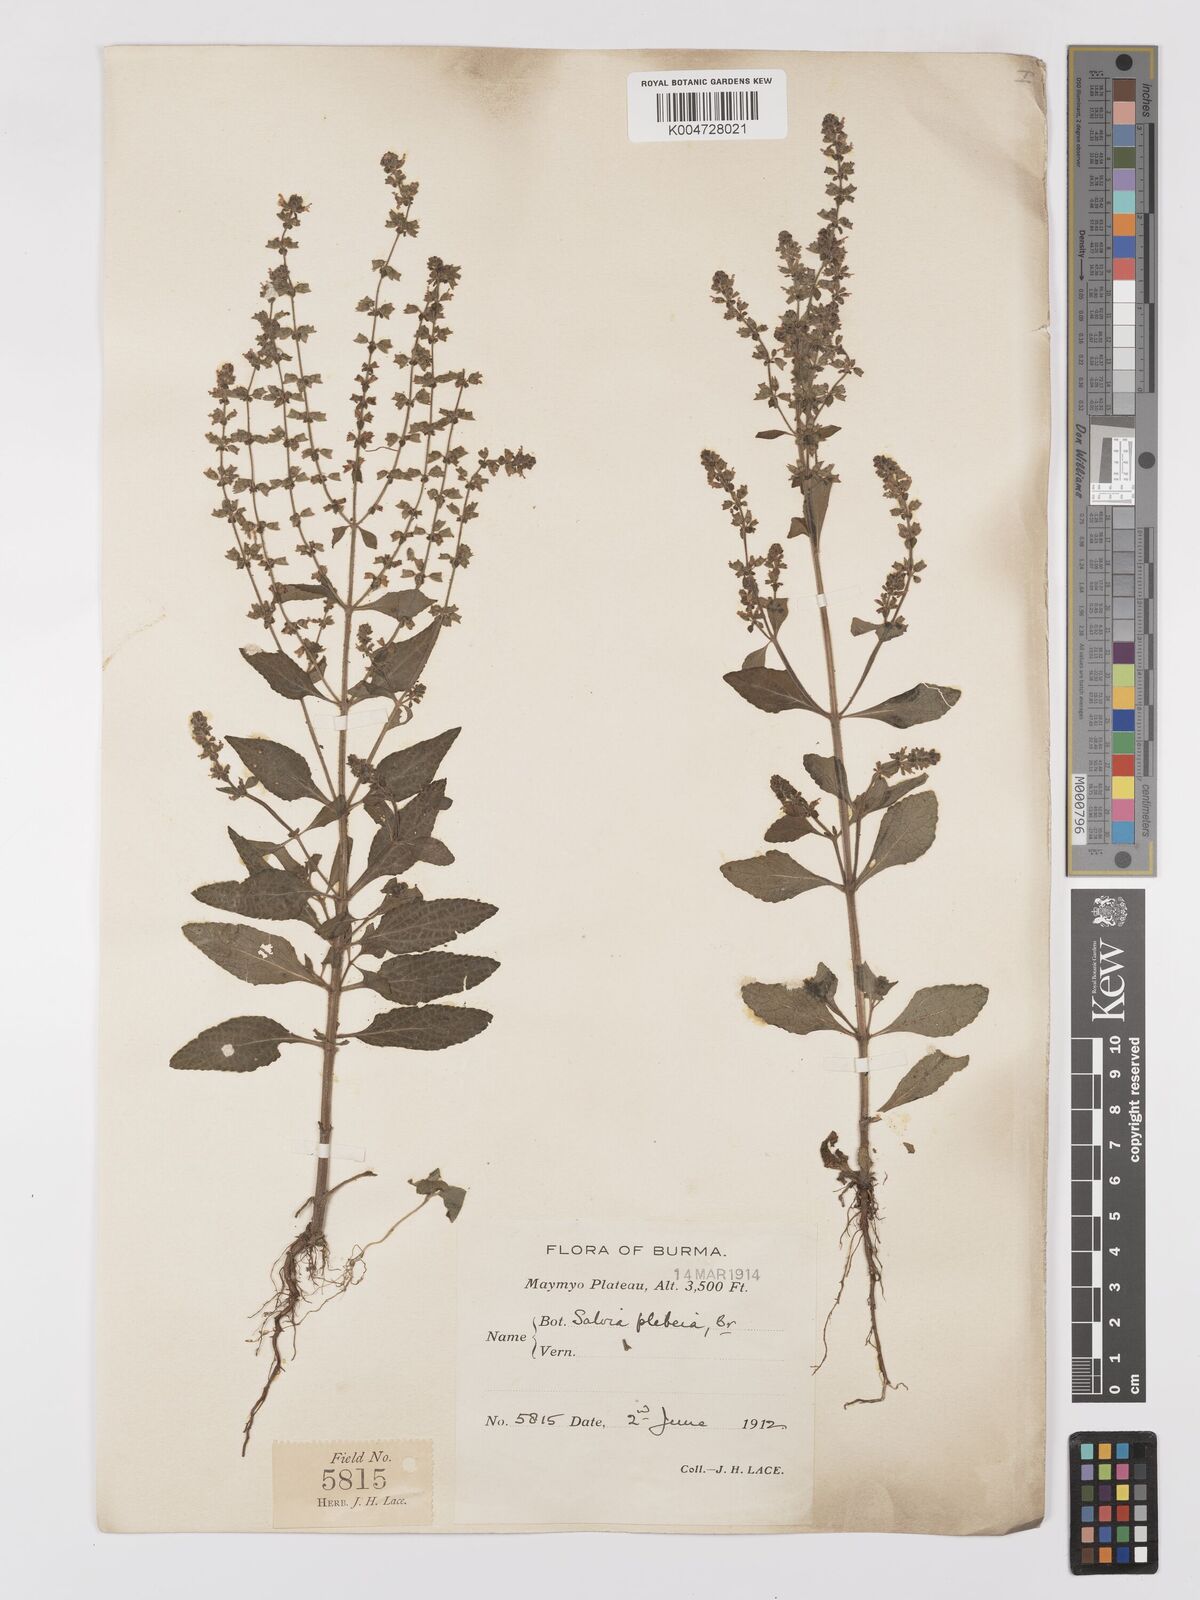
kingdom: Plantae
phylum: Tracheophyta
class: Magnoliopsida
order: Lamiales
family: Lamiaceae
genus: Salvia
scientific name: Salvia plebeia
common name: Australian sage
